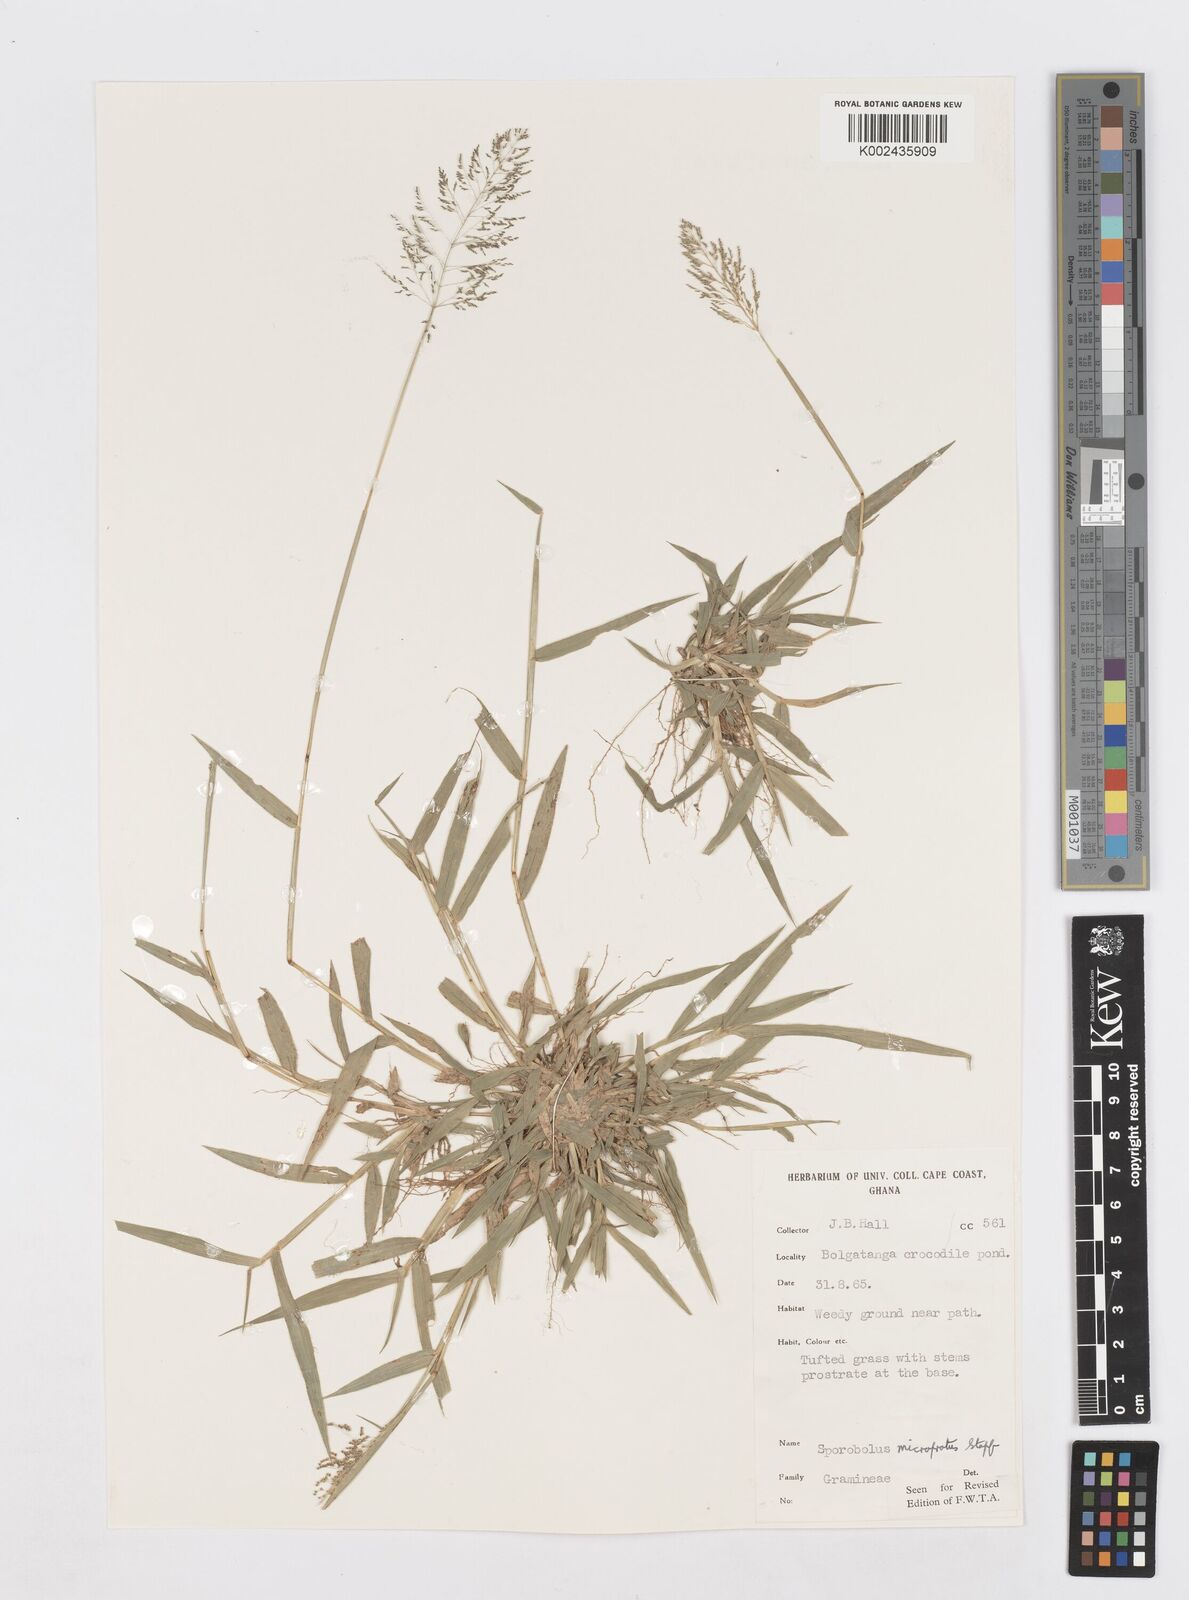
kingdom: Plantae
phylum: Tracheophyta
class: Liliopsida
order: Poales
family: Poaceae
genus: Sporobolus
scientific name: Sporobolus microprotus
